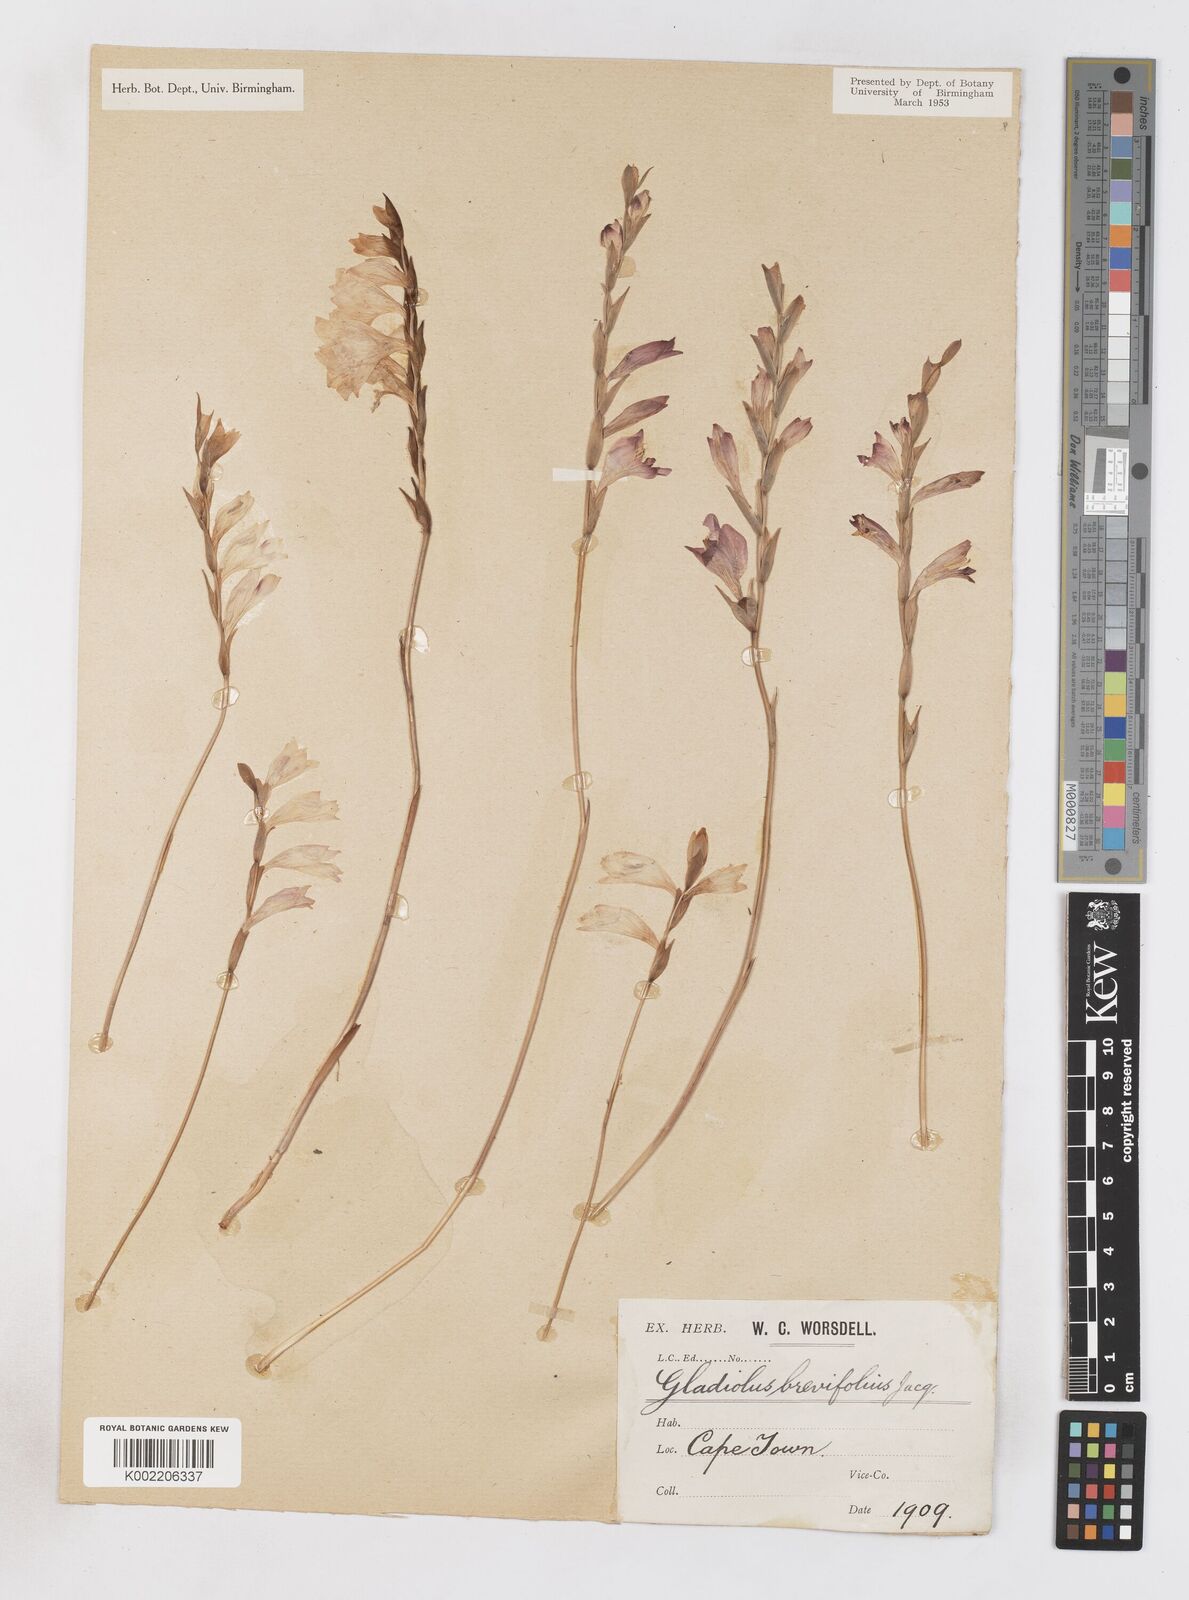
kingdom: Plantae
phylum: Tracheophyta
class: Liliopsida
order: Asparagales
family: Iridaceae
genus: Gladiolus
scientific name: Gladiolus brevifolius
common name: March pypie
